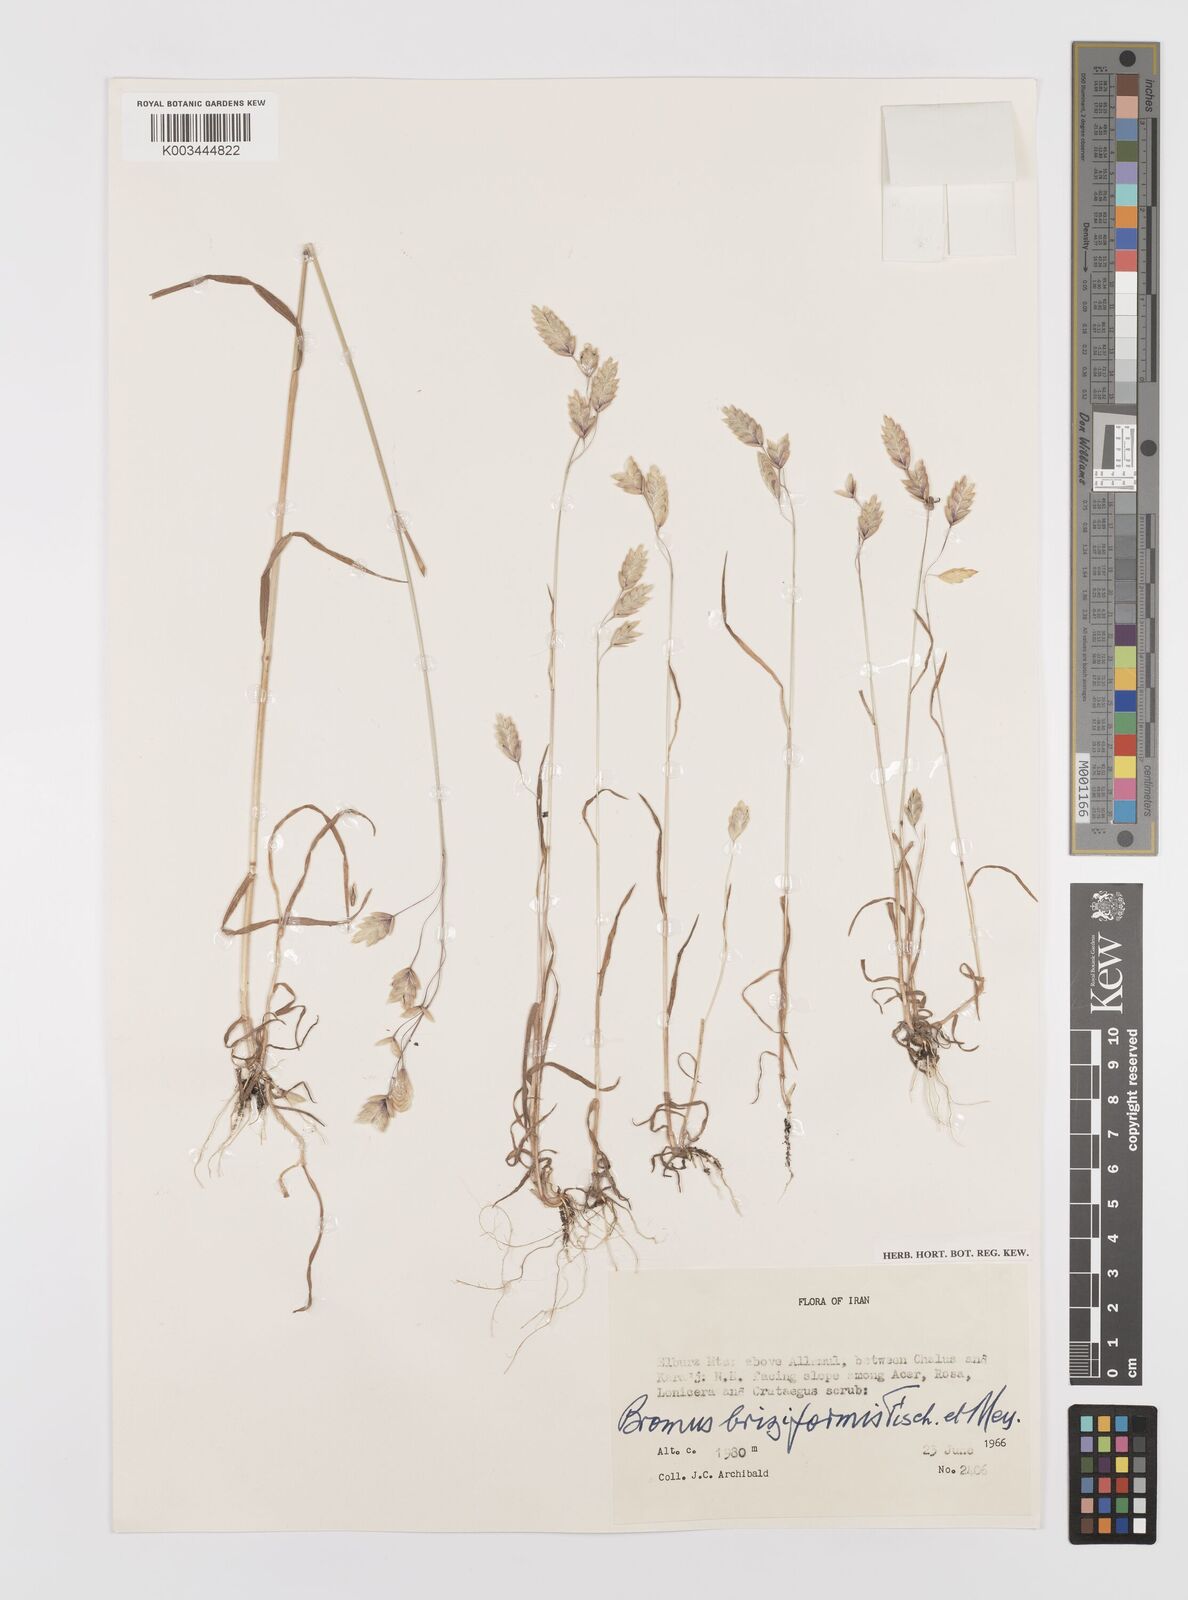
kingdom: Plantae
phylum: Tracheophyta
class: Liliopsida
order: Poales
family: Poaceae
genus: Bromus
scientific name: Bromus briziformis
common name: Rattlesnake brome
